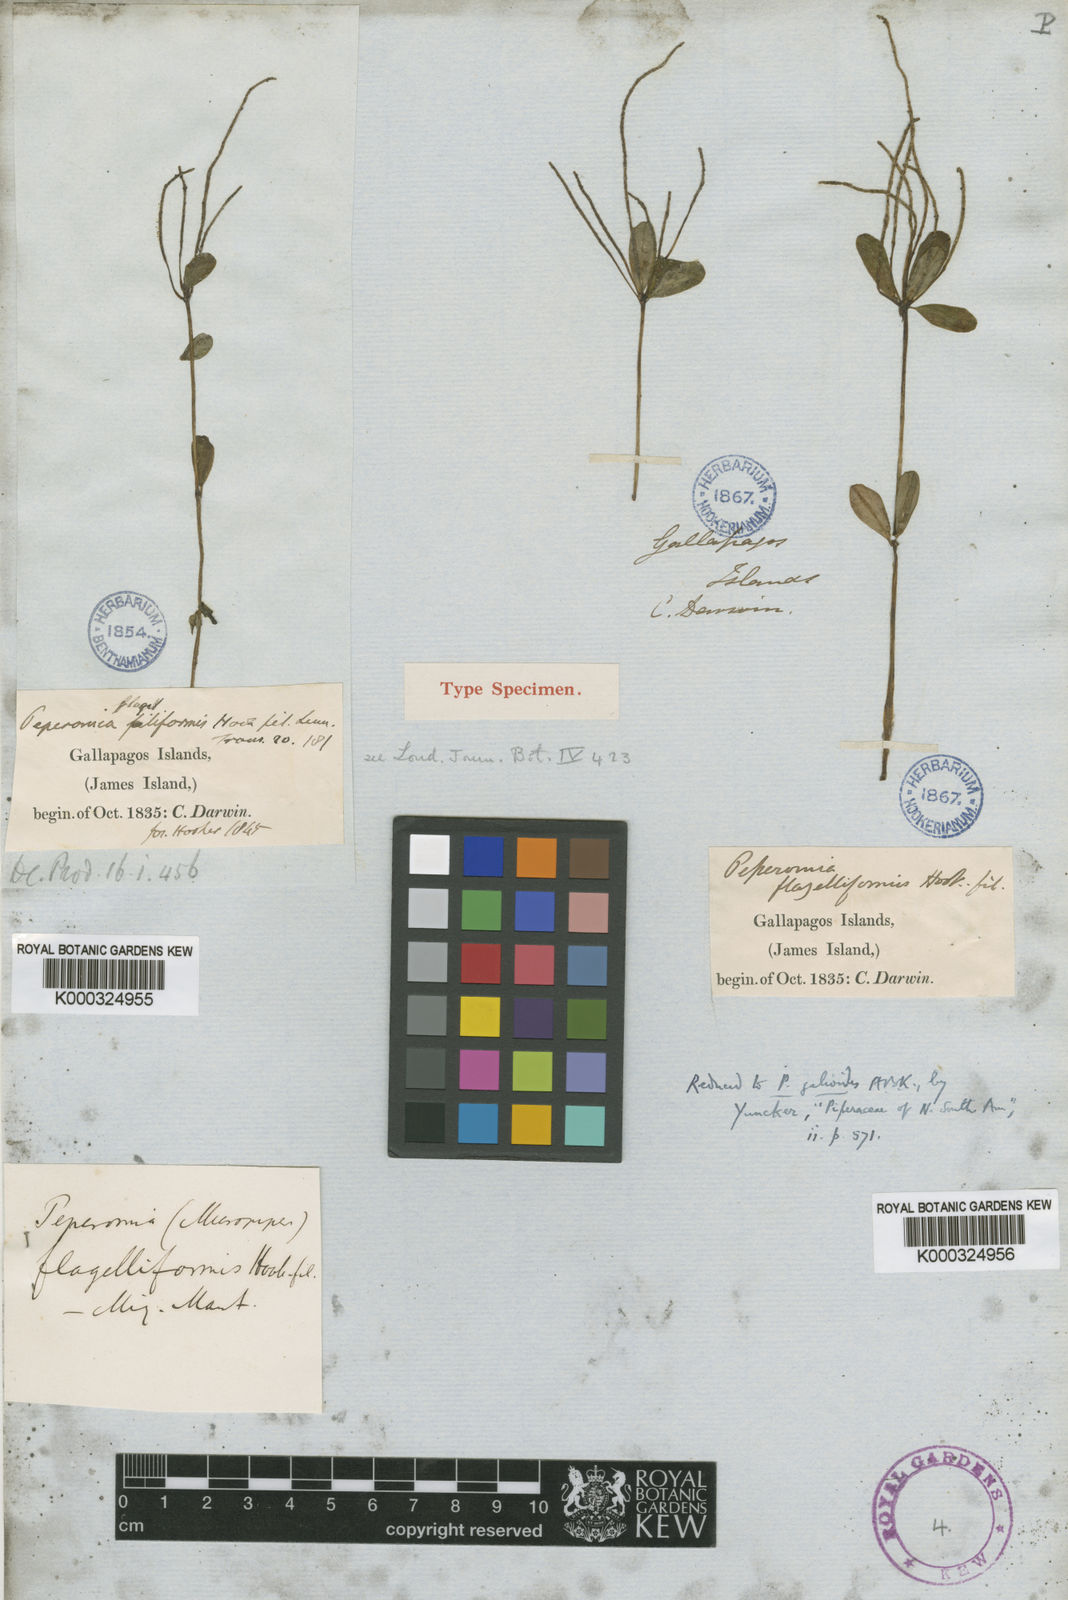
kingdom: Plantae
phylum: Tracheophyta
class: Magnoliopsida
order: Piperales
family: Piperaceae
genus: Peperomia
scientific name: Peperomia galioides
